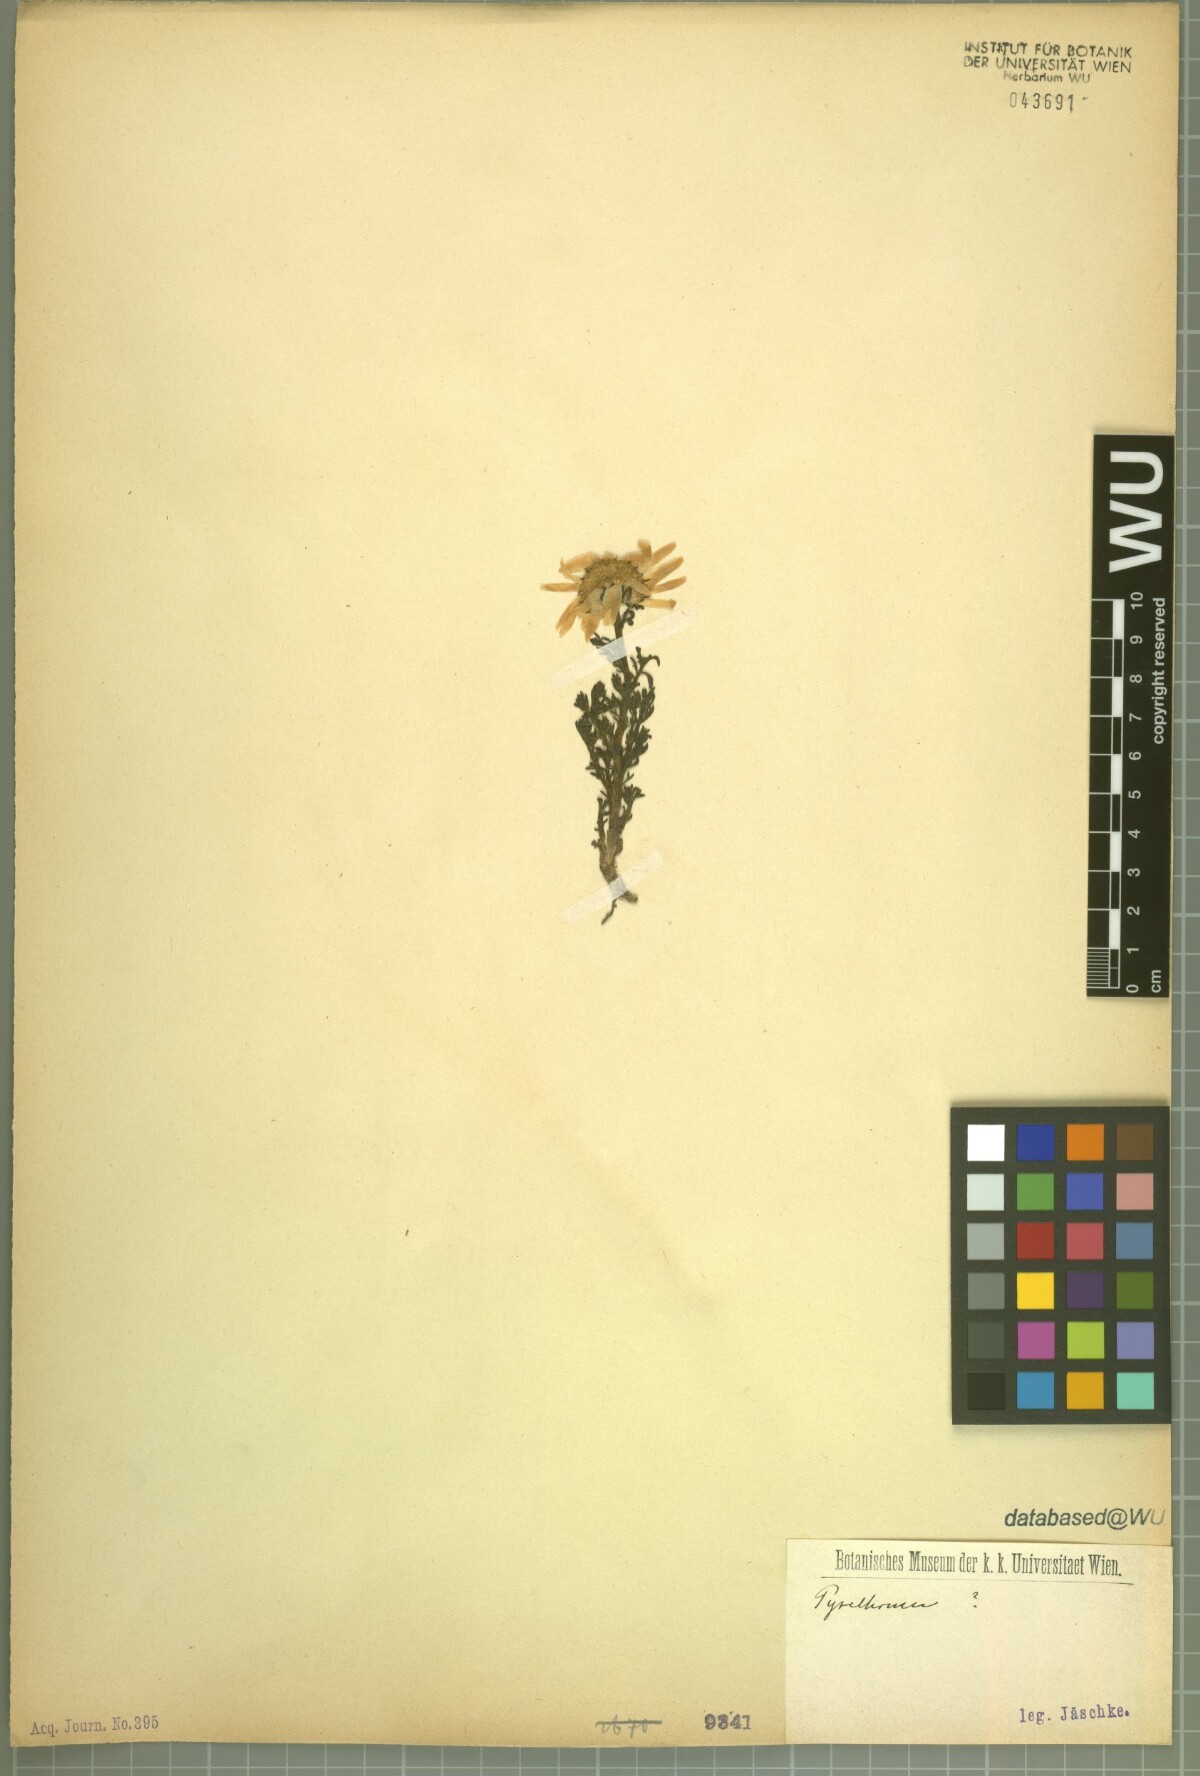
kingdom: Plantae
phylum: Tracheophyta
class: Magnoliopsida
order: Asterales
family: Asteraceae
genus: Pyrethrum
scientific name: Pyrethrum
